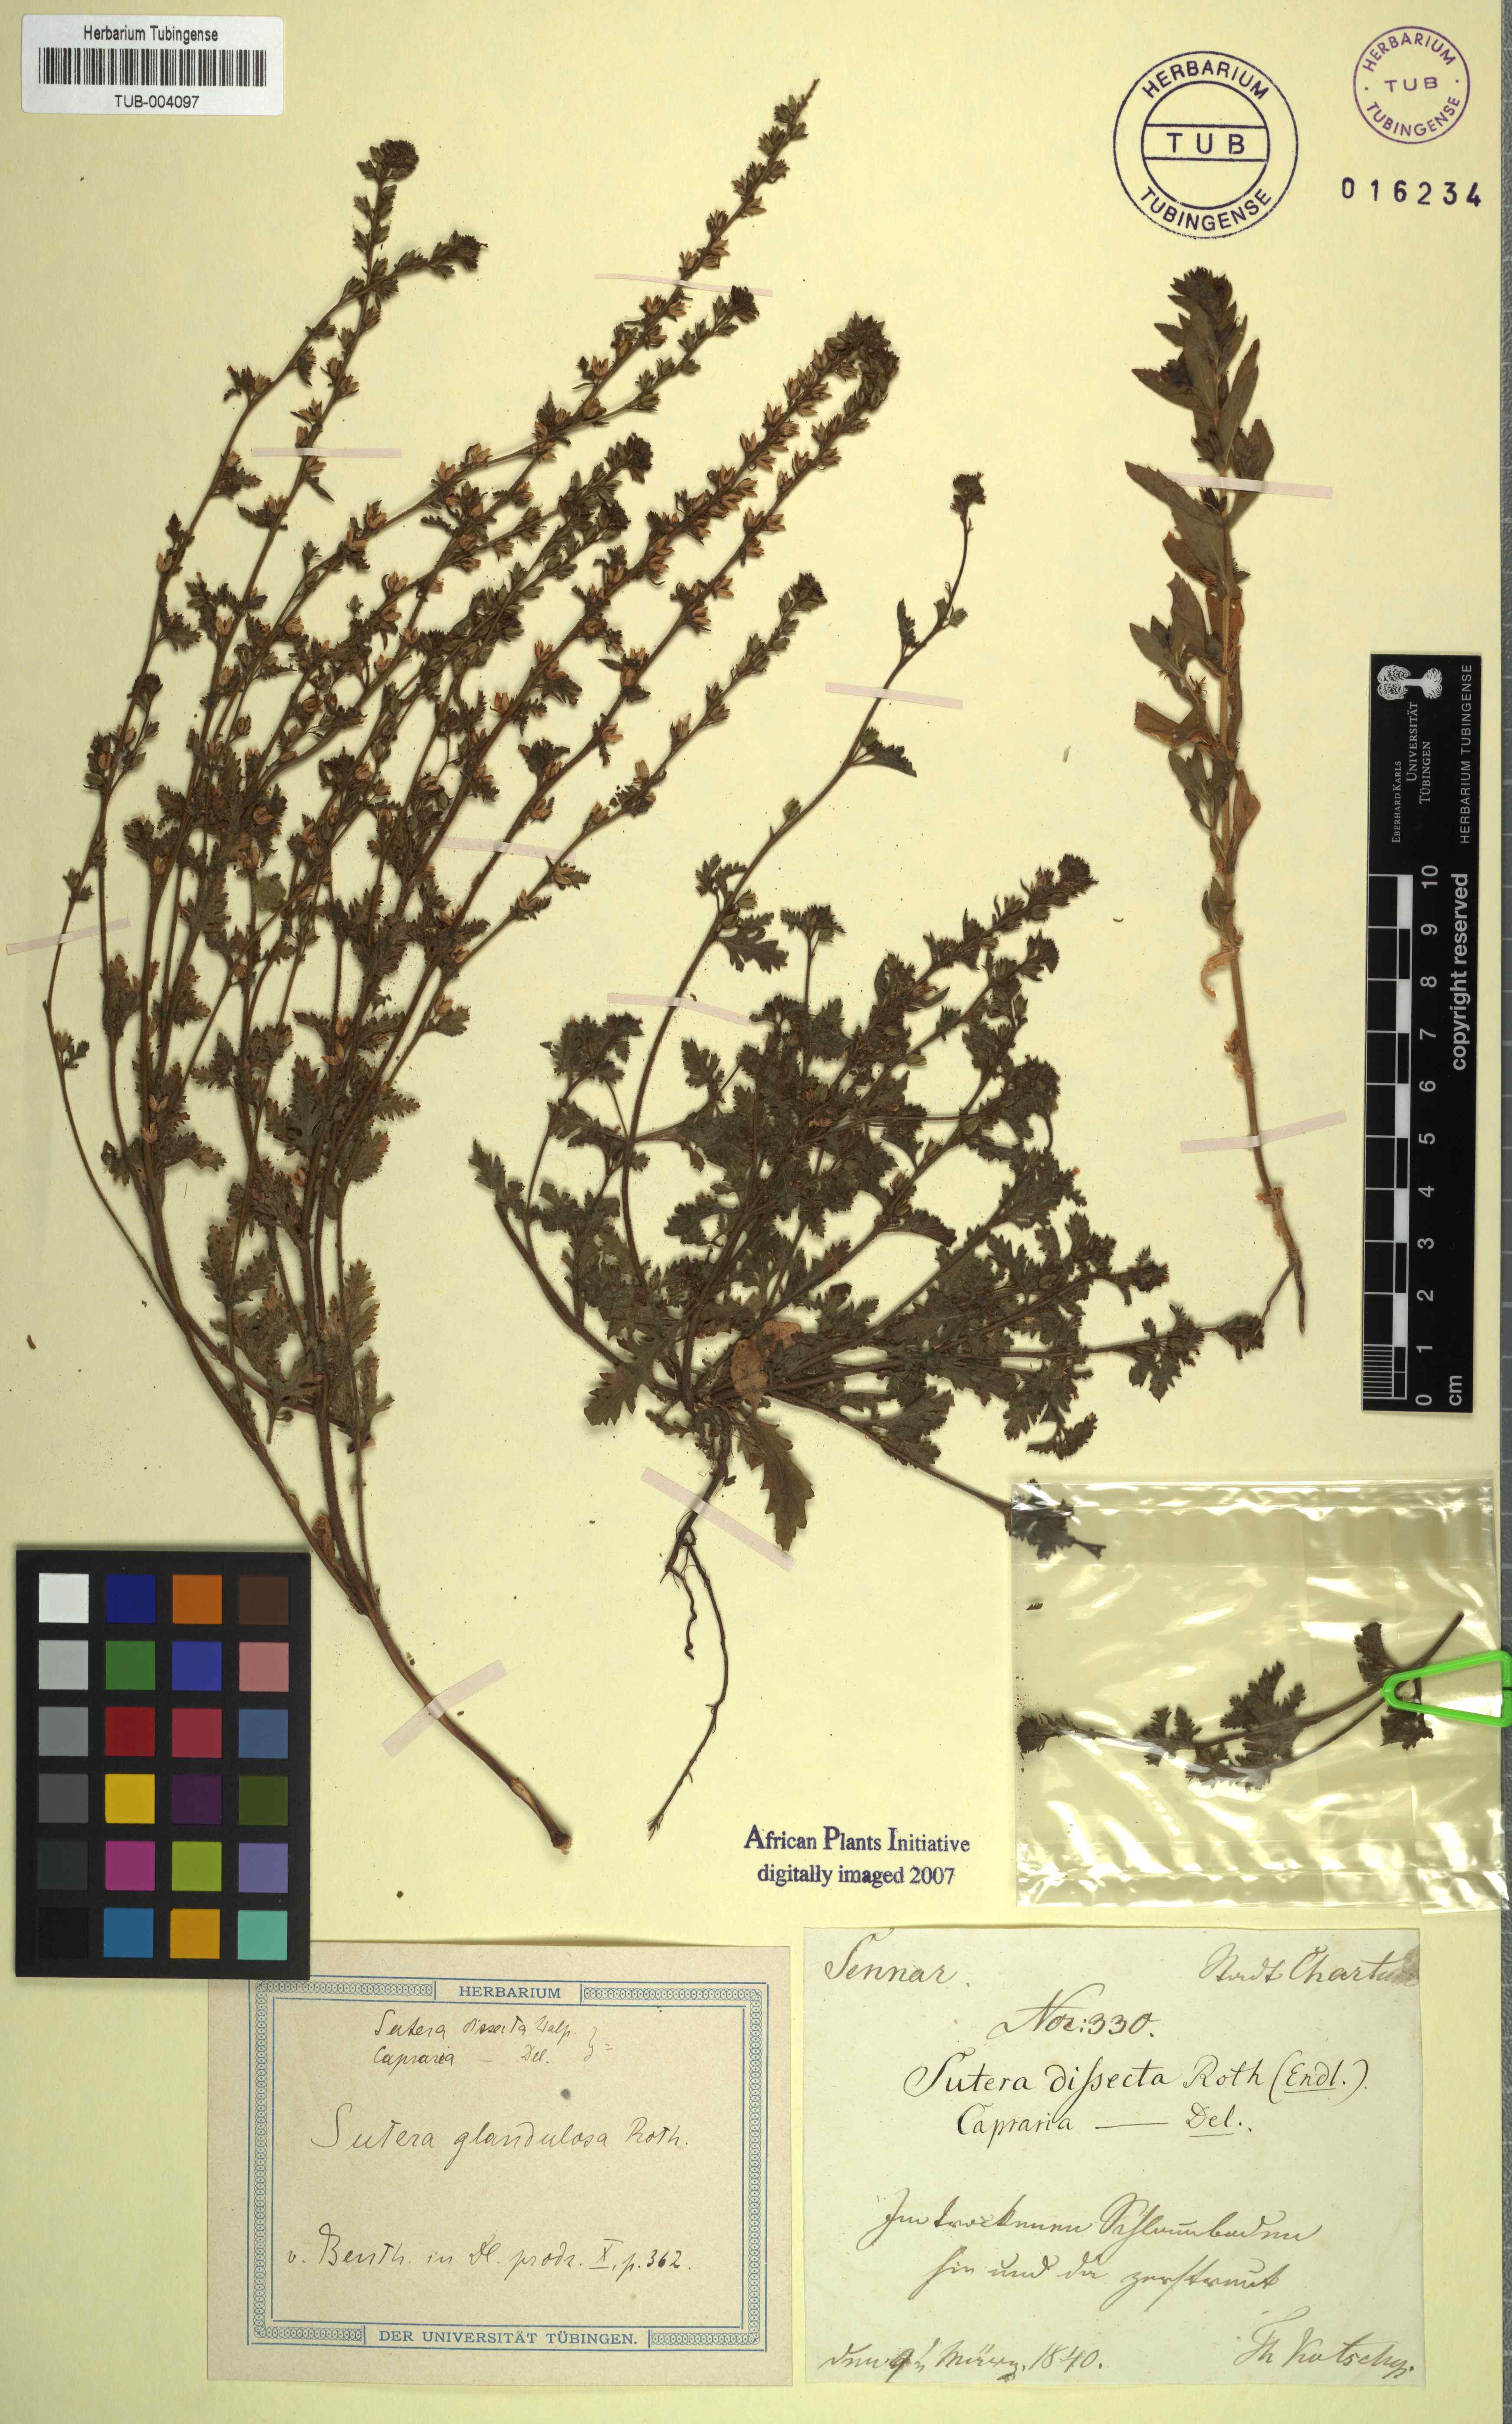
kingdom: Plantae
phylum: Tracheophyta
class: Magnoliopsida
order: Lamiales
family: Scrophulariaceae
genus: Jamesbrittenia
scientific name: Jamesbrittenia dissecta
